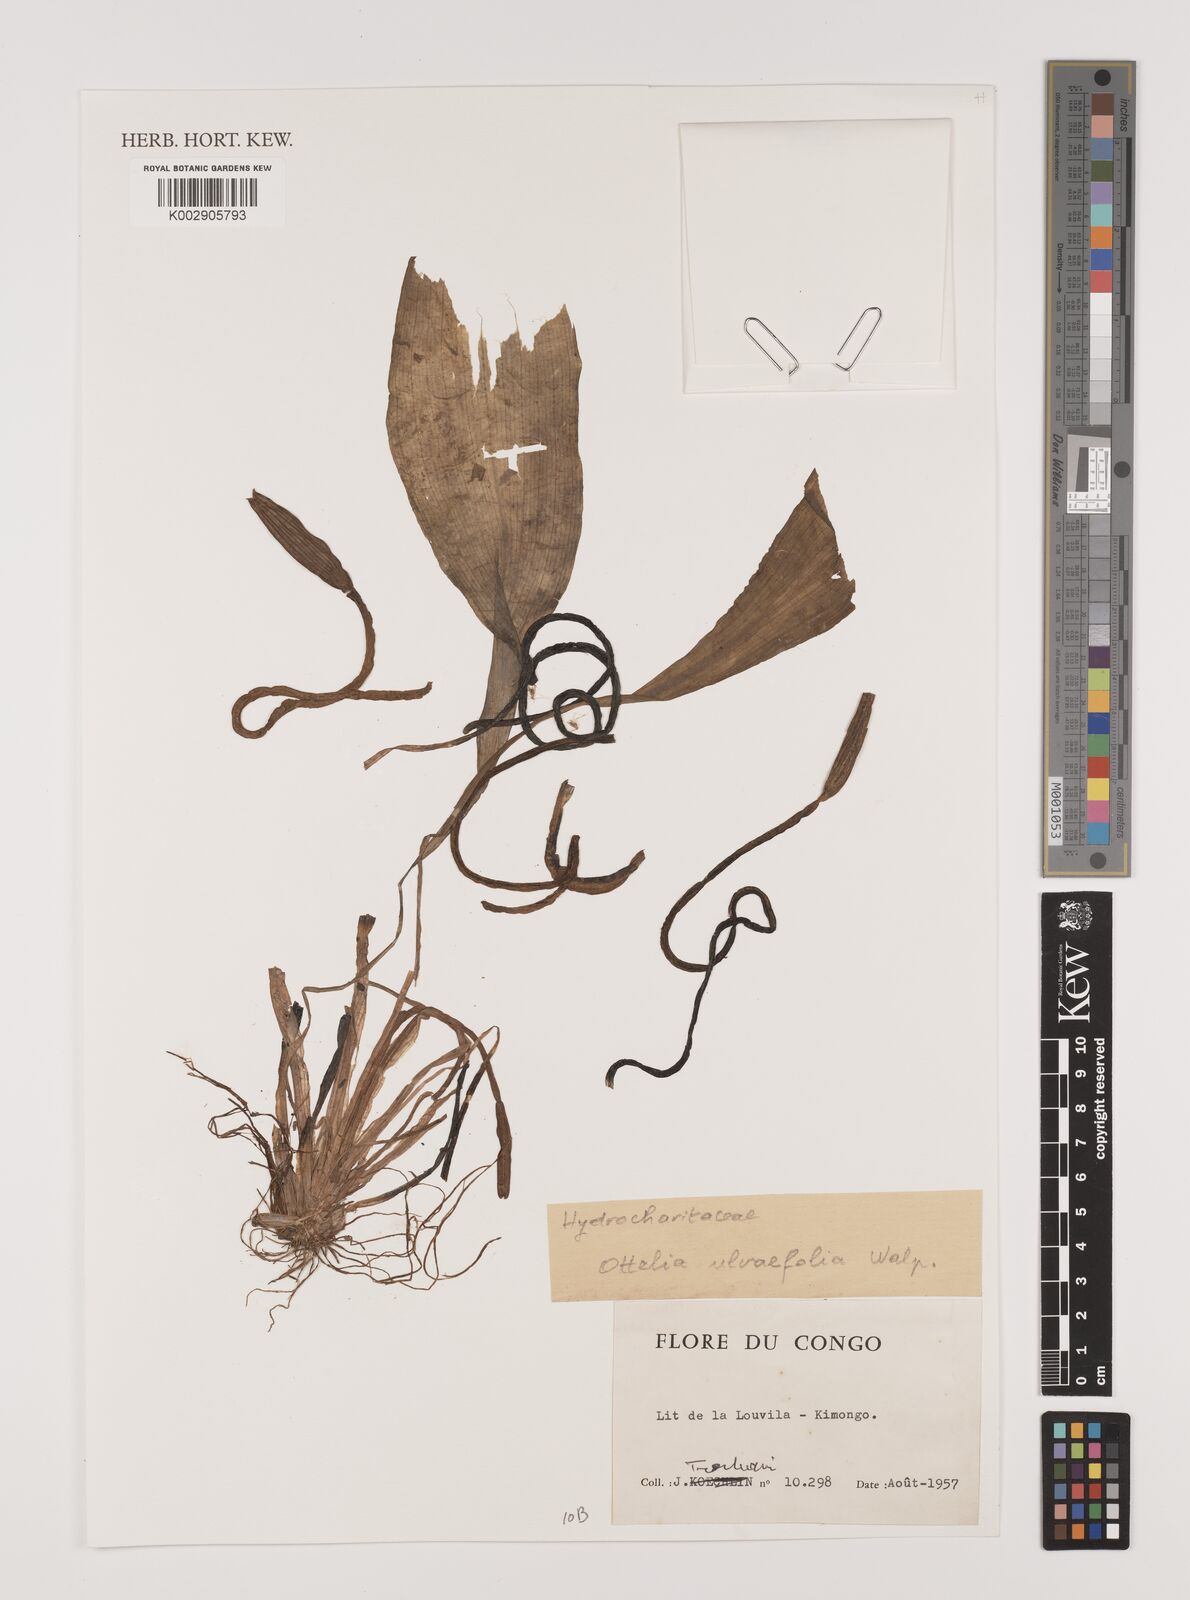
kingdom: Plantae
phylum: Tracheophyta
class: Liliopsida
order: Alismatales
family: Hydrocharitaceae
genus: Ottelia
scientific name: Ottelia ulvifolia
